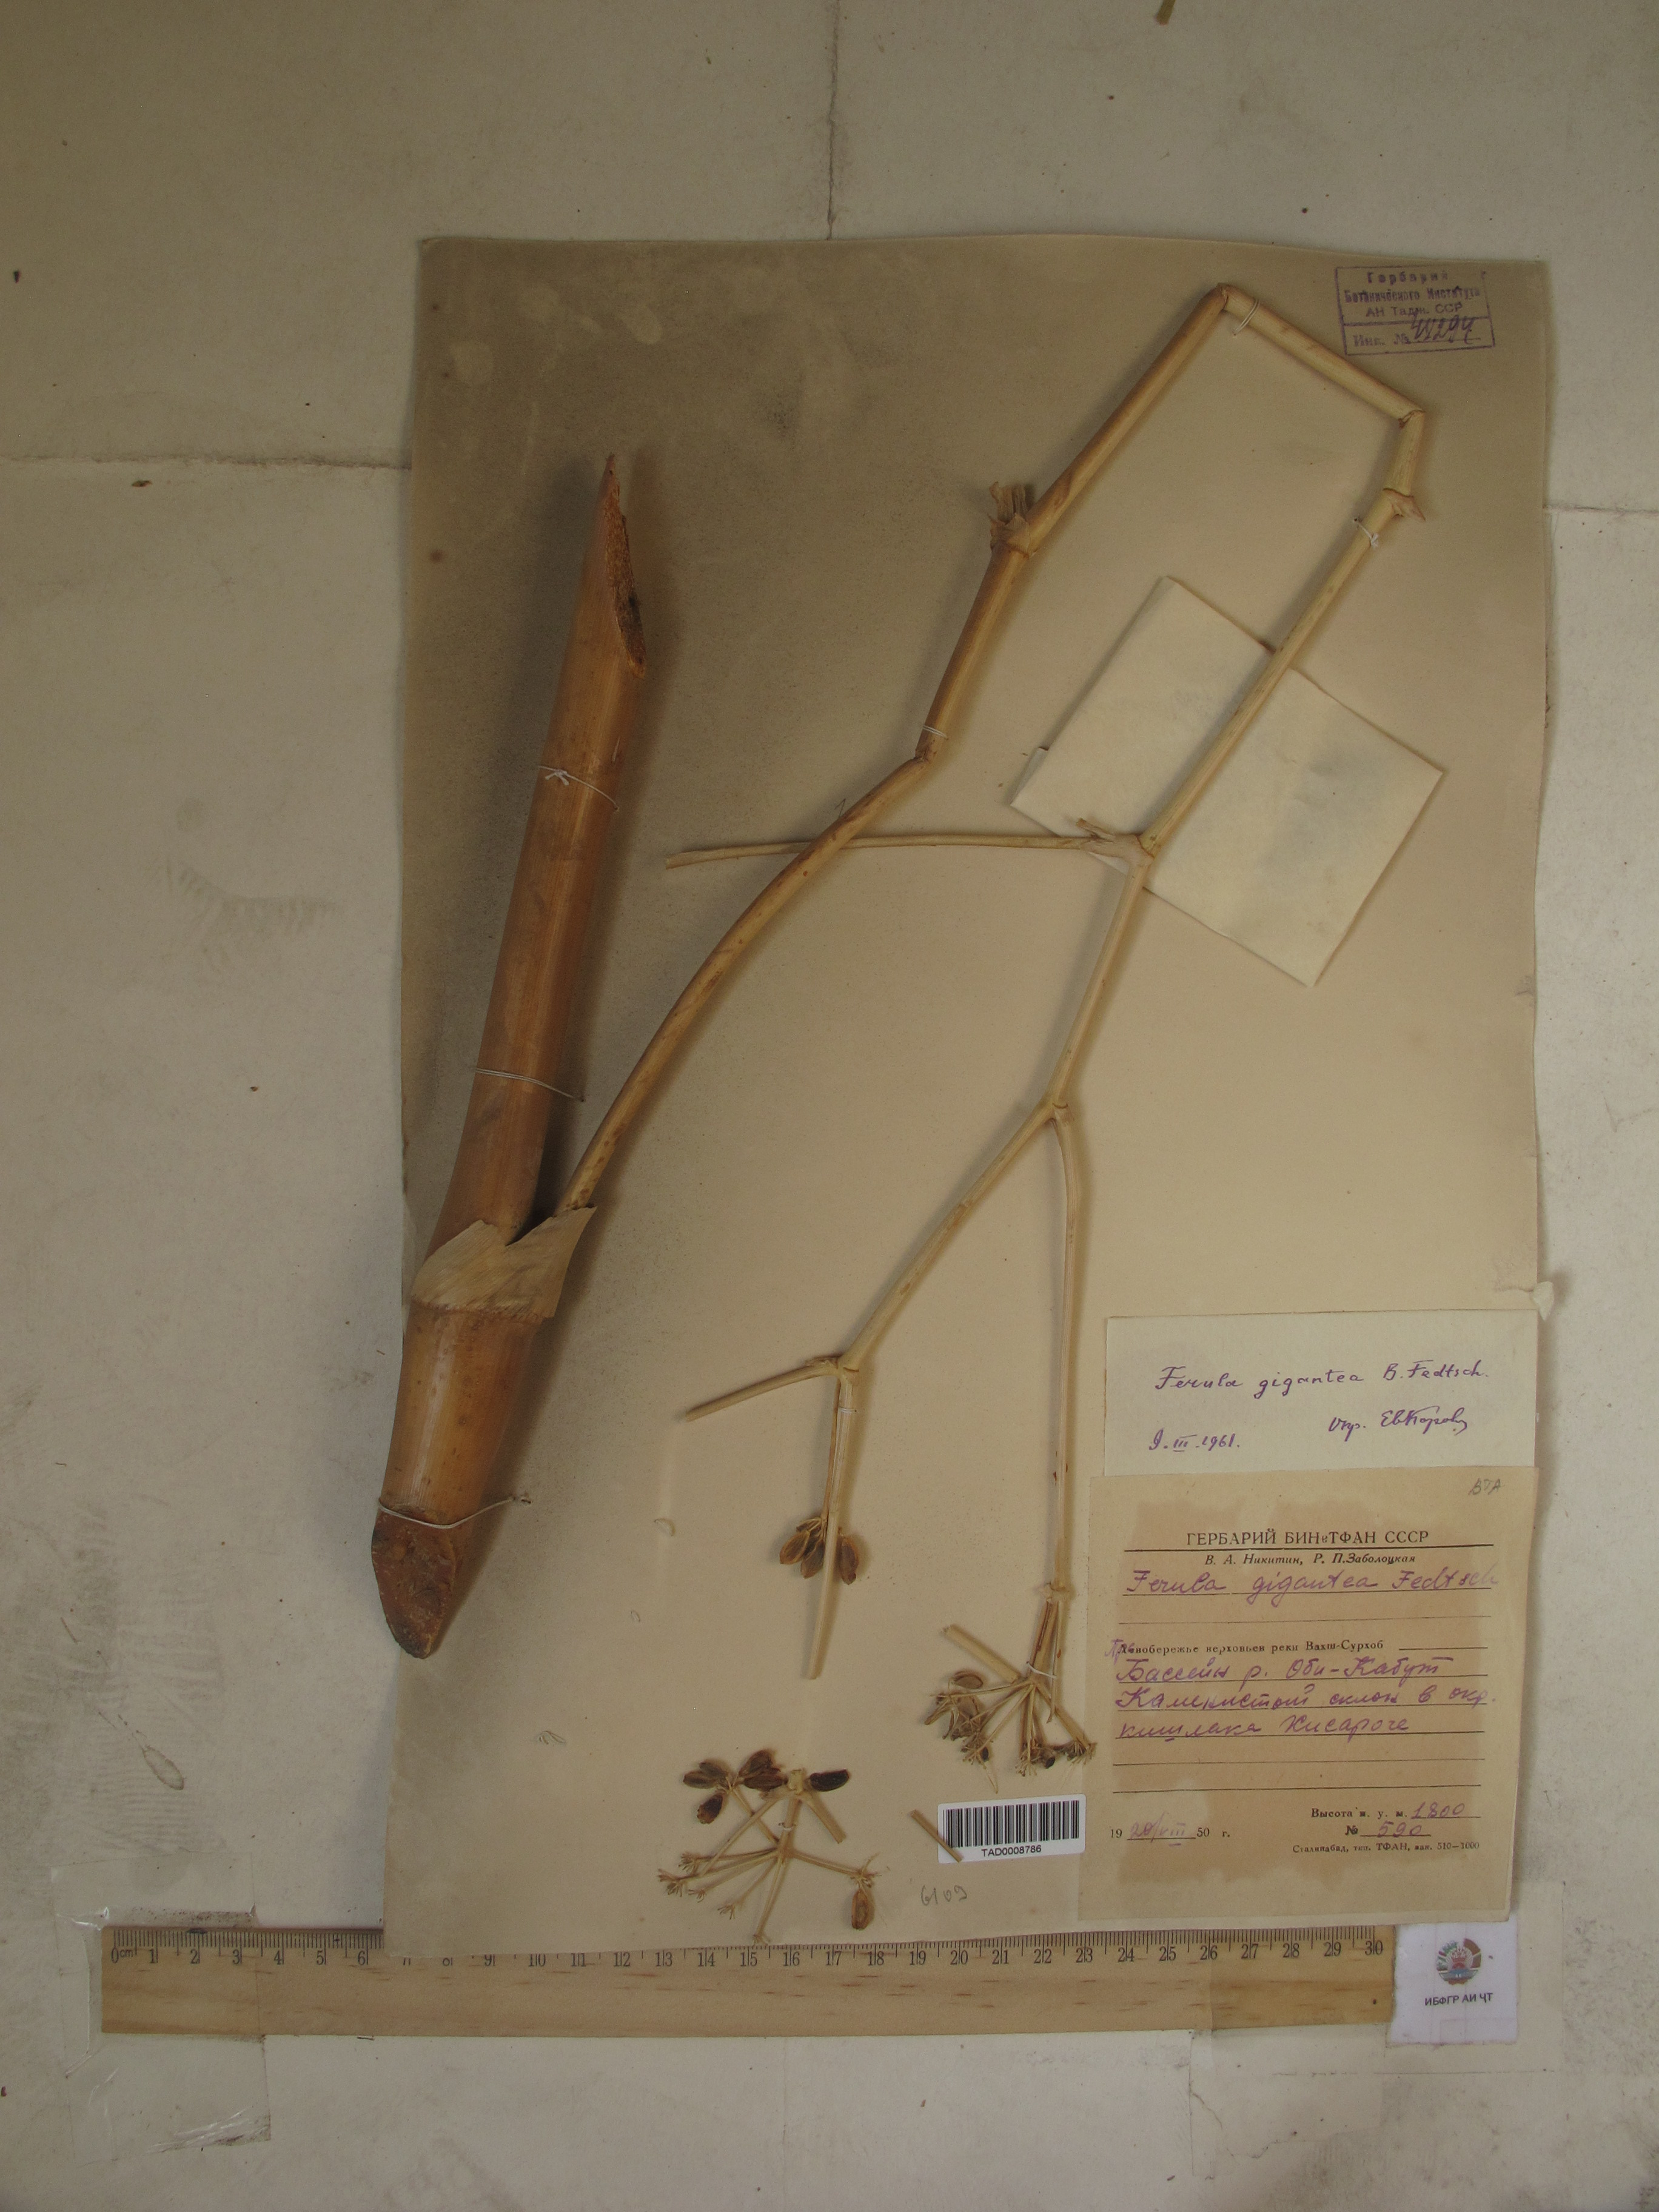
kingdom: Plantae
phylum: Tracheophyta
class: Magnoliopsida
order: Apiales
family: Apiaceae
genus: Ferula
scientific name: Ferula gigantea
